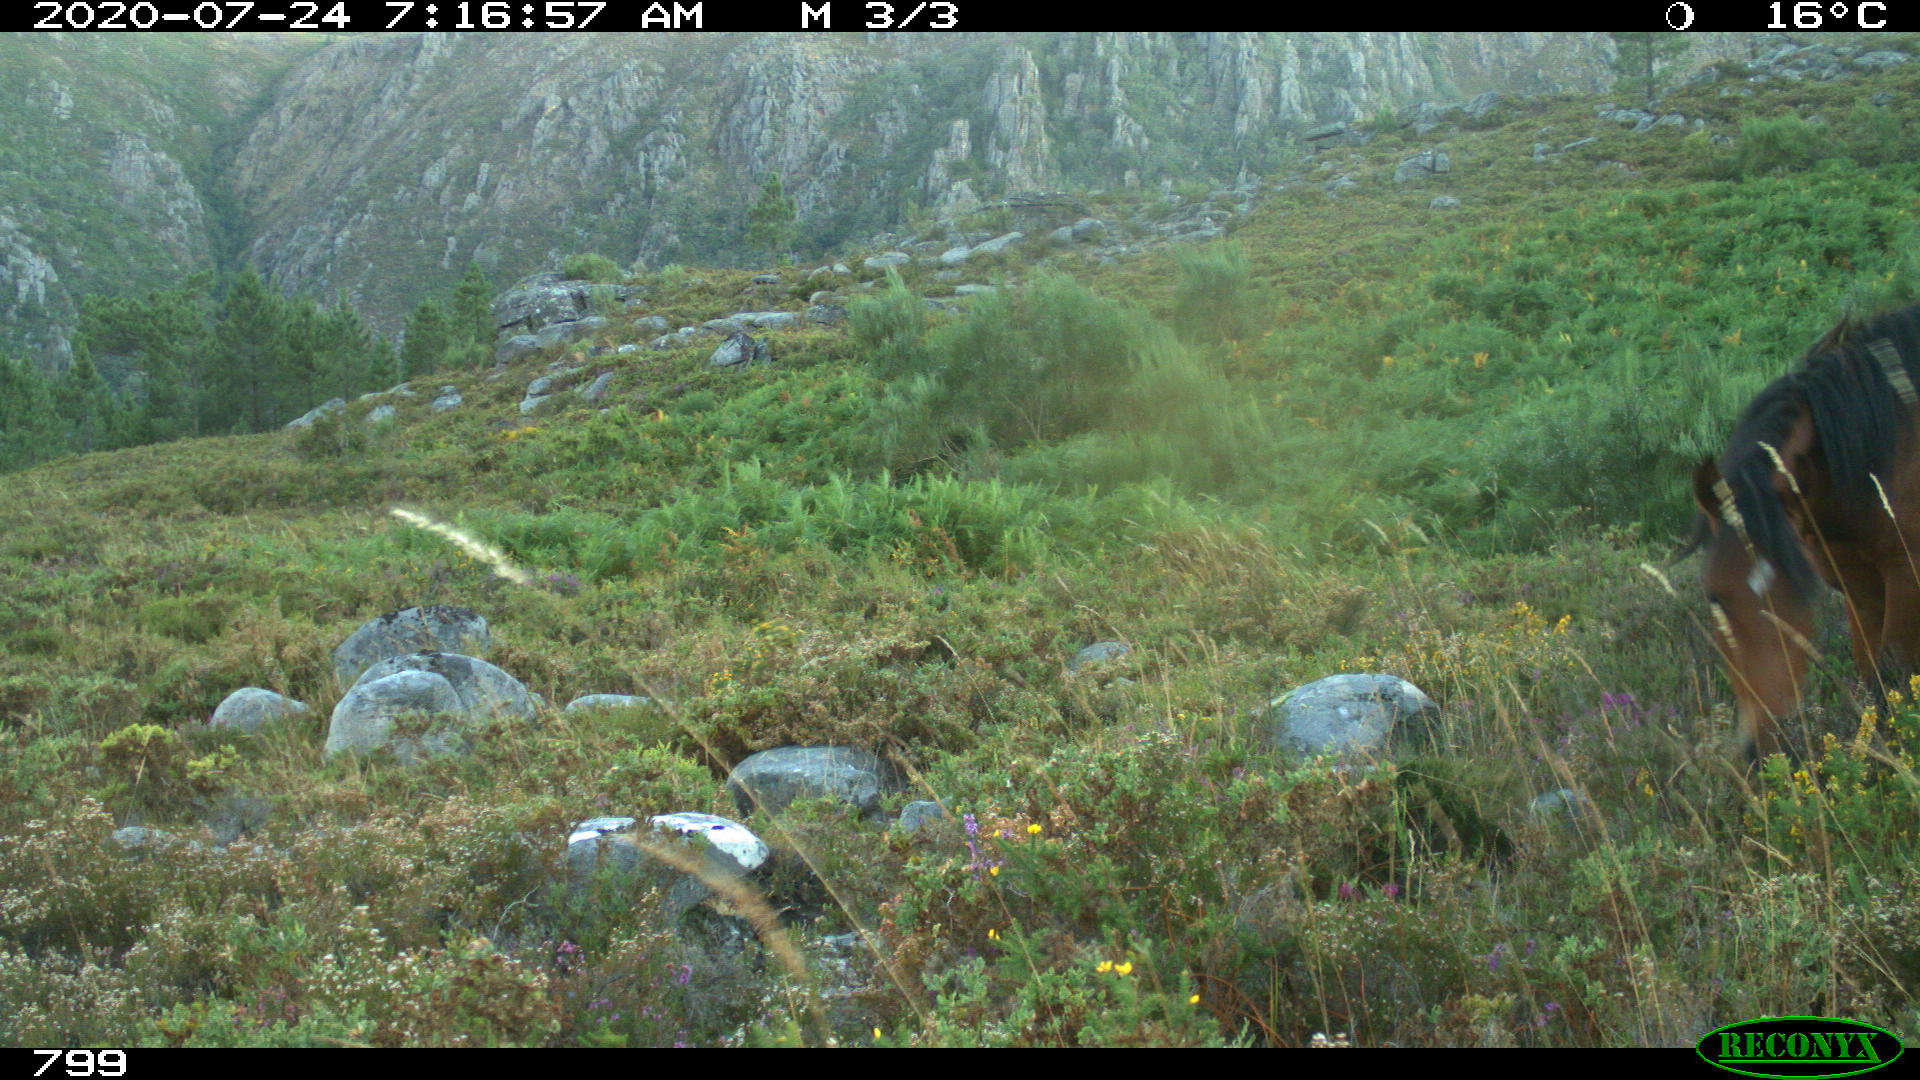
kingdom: Animalia
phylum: Chordata
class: Mammalia
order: Perissodactyla
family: Equidae
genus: Equus
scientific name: Equus caballus
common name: Horse
